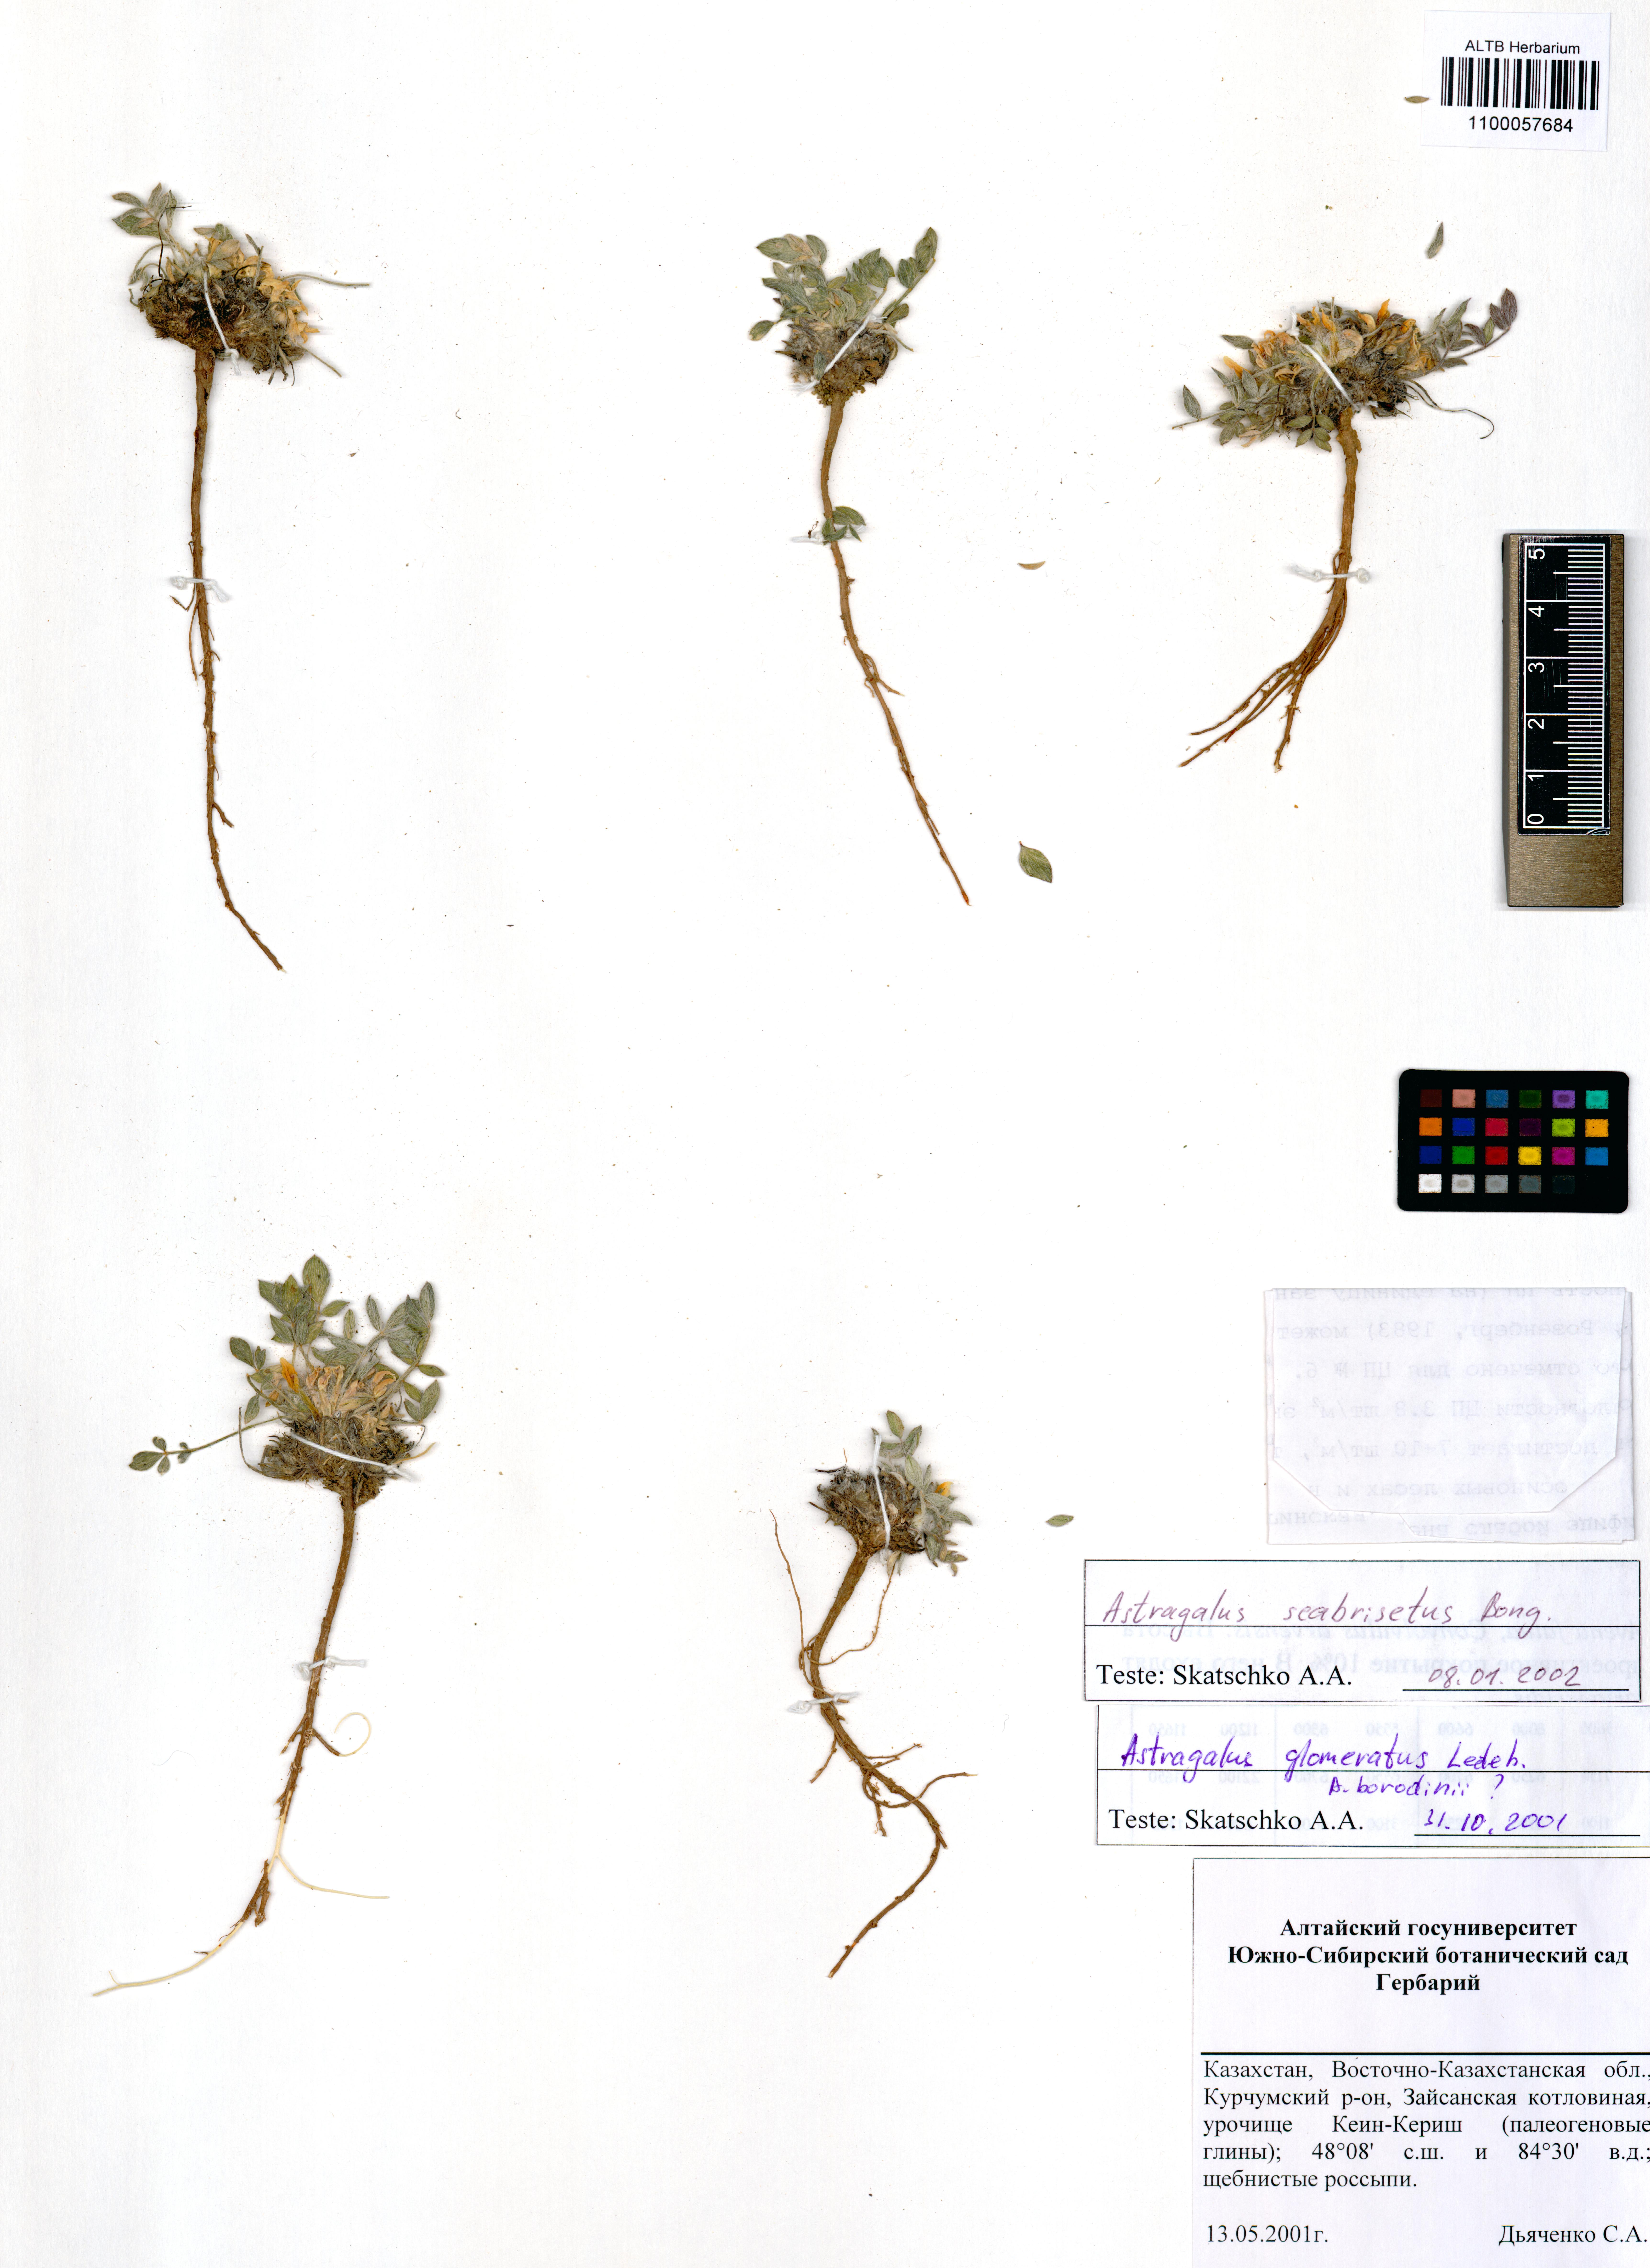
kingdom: Plantae
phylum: Tracheophyta
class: Magnoliopsida
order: Fabales
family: Fabaceae
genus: Astragalus
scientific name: Astragalus scabrisetus
